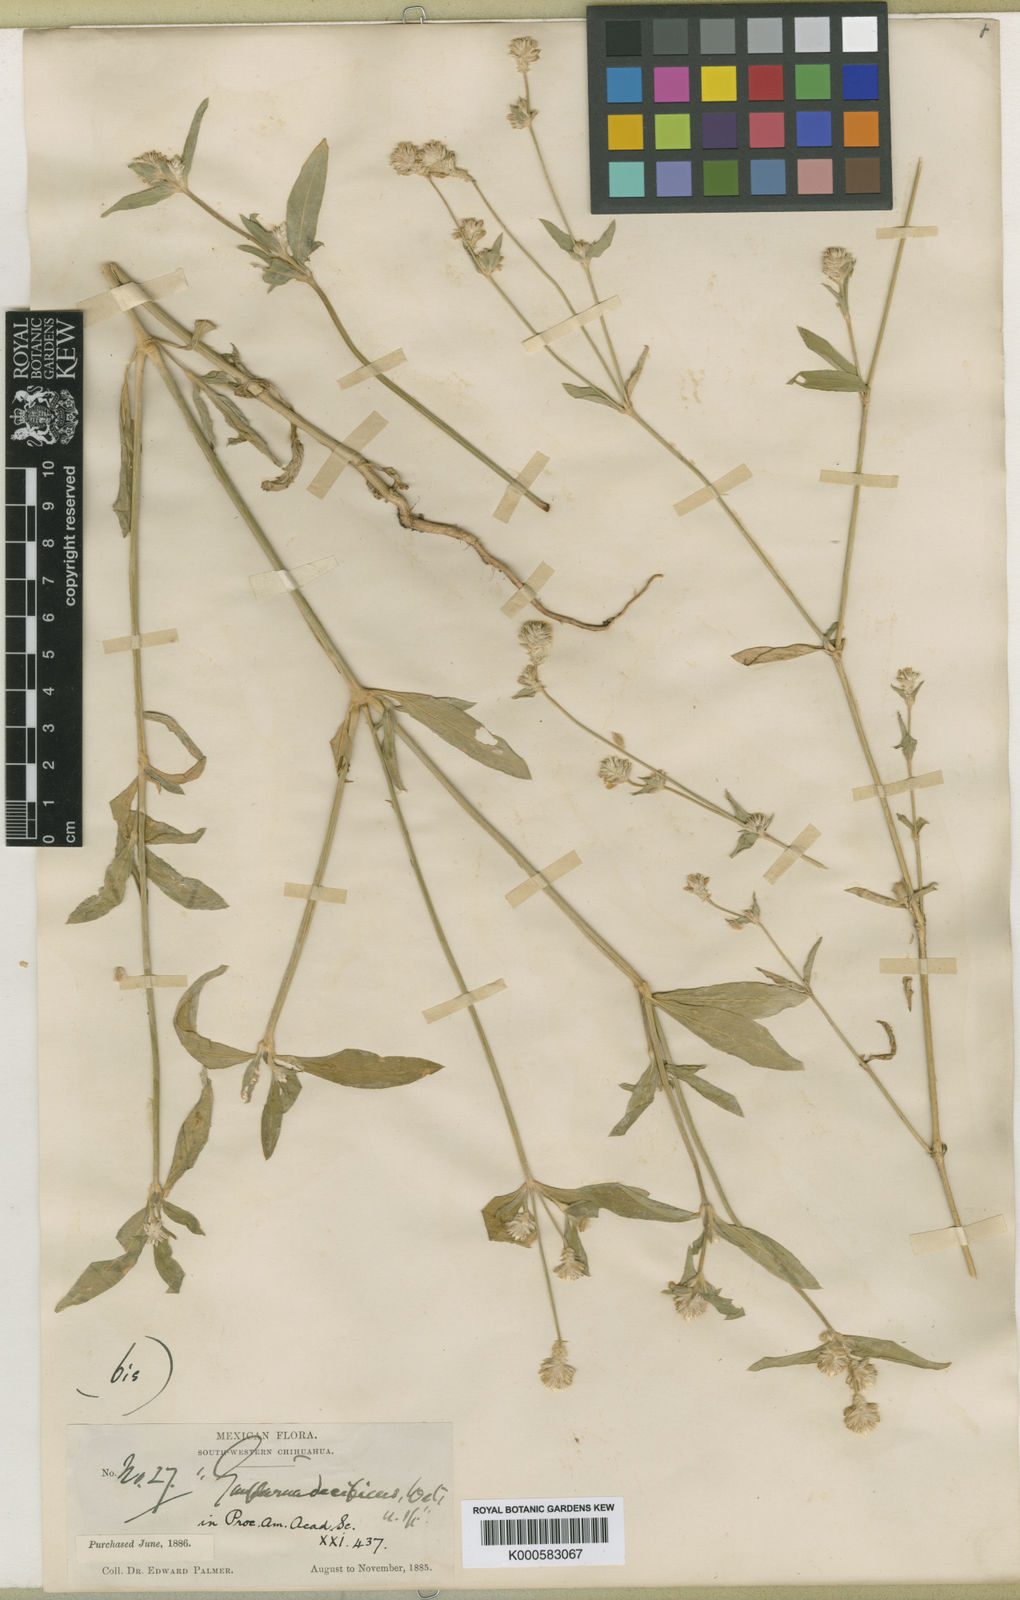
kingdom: Plantae
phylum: Tracheophyta
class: Magnoliopsida
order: Caryophyllales
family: Amaranthaceae
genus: Gomphrena
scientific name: Gomphrena sonorae
